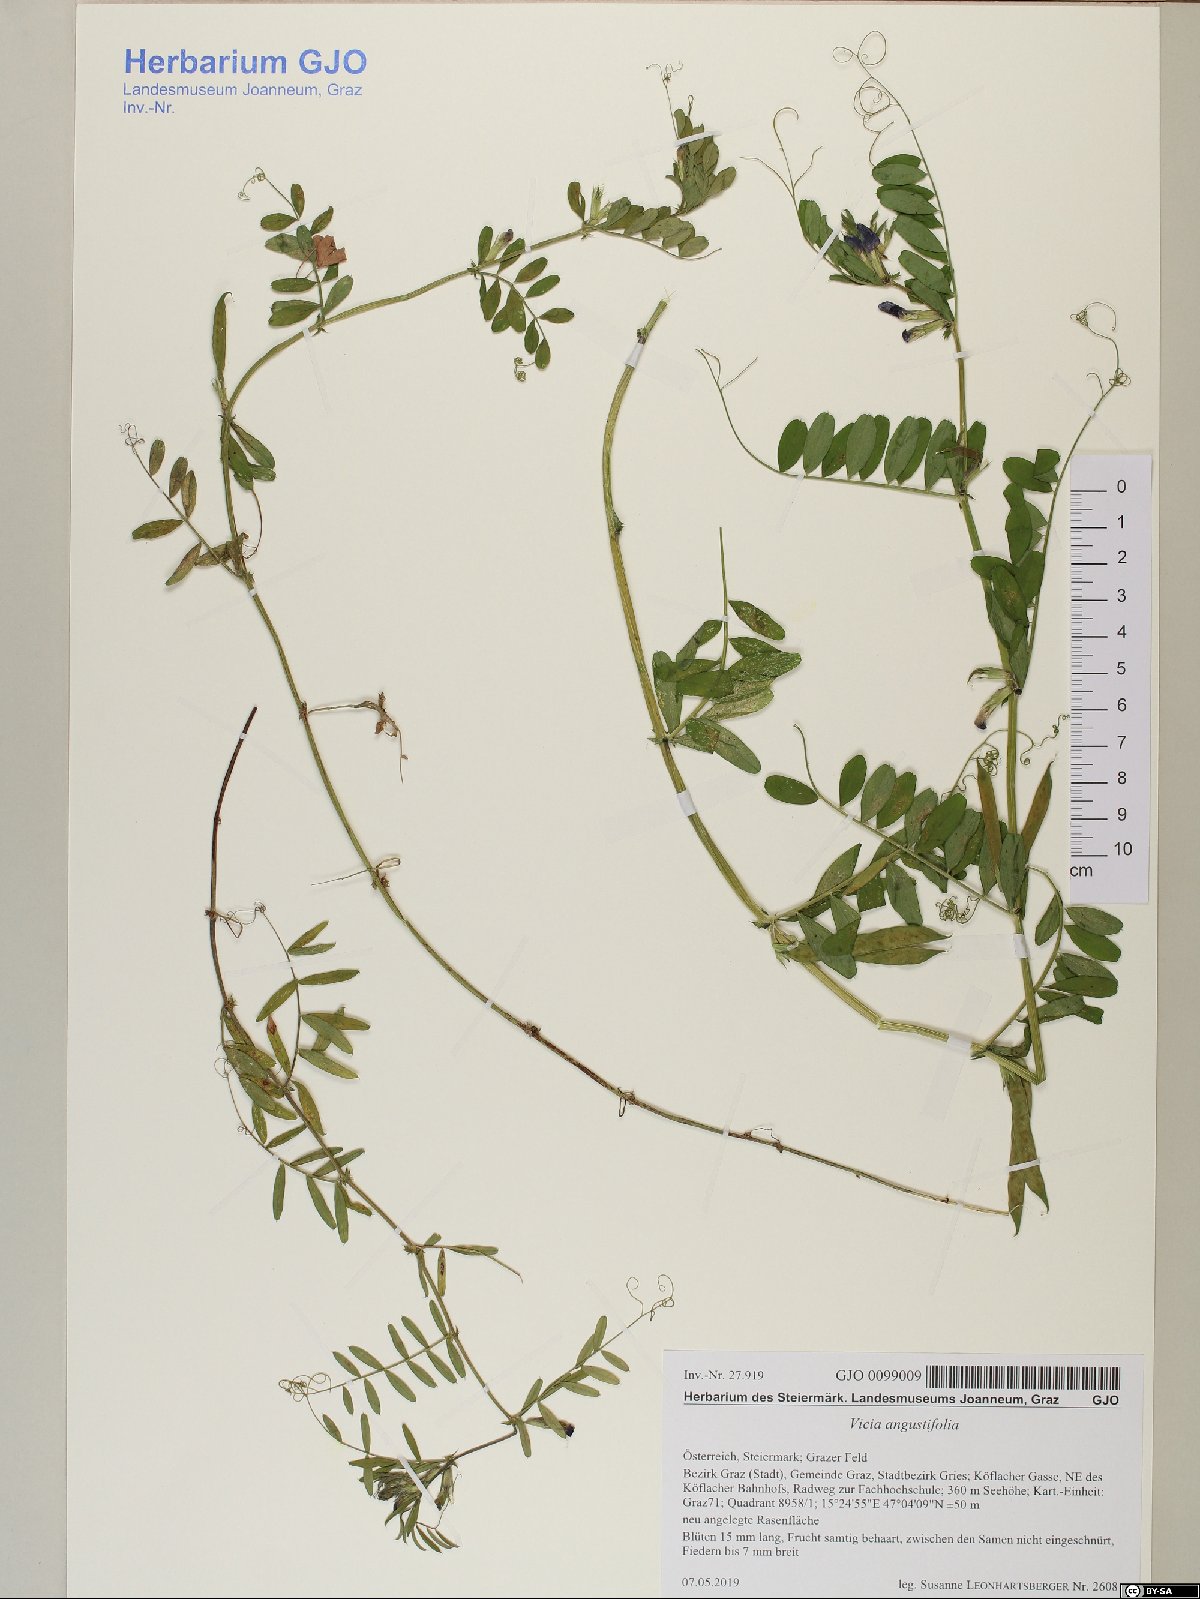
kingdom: Plantae
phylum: Tracheophyta
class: Magnoliopsida
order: Fabales
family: Fabaceae
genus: Vicia
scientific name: Vicia sativa
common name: Garden vetch
